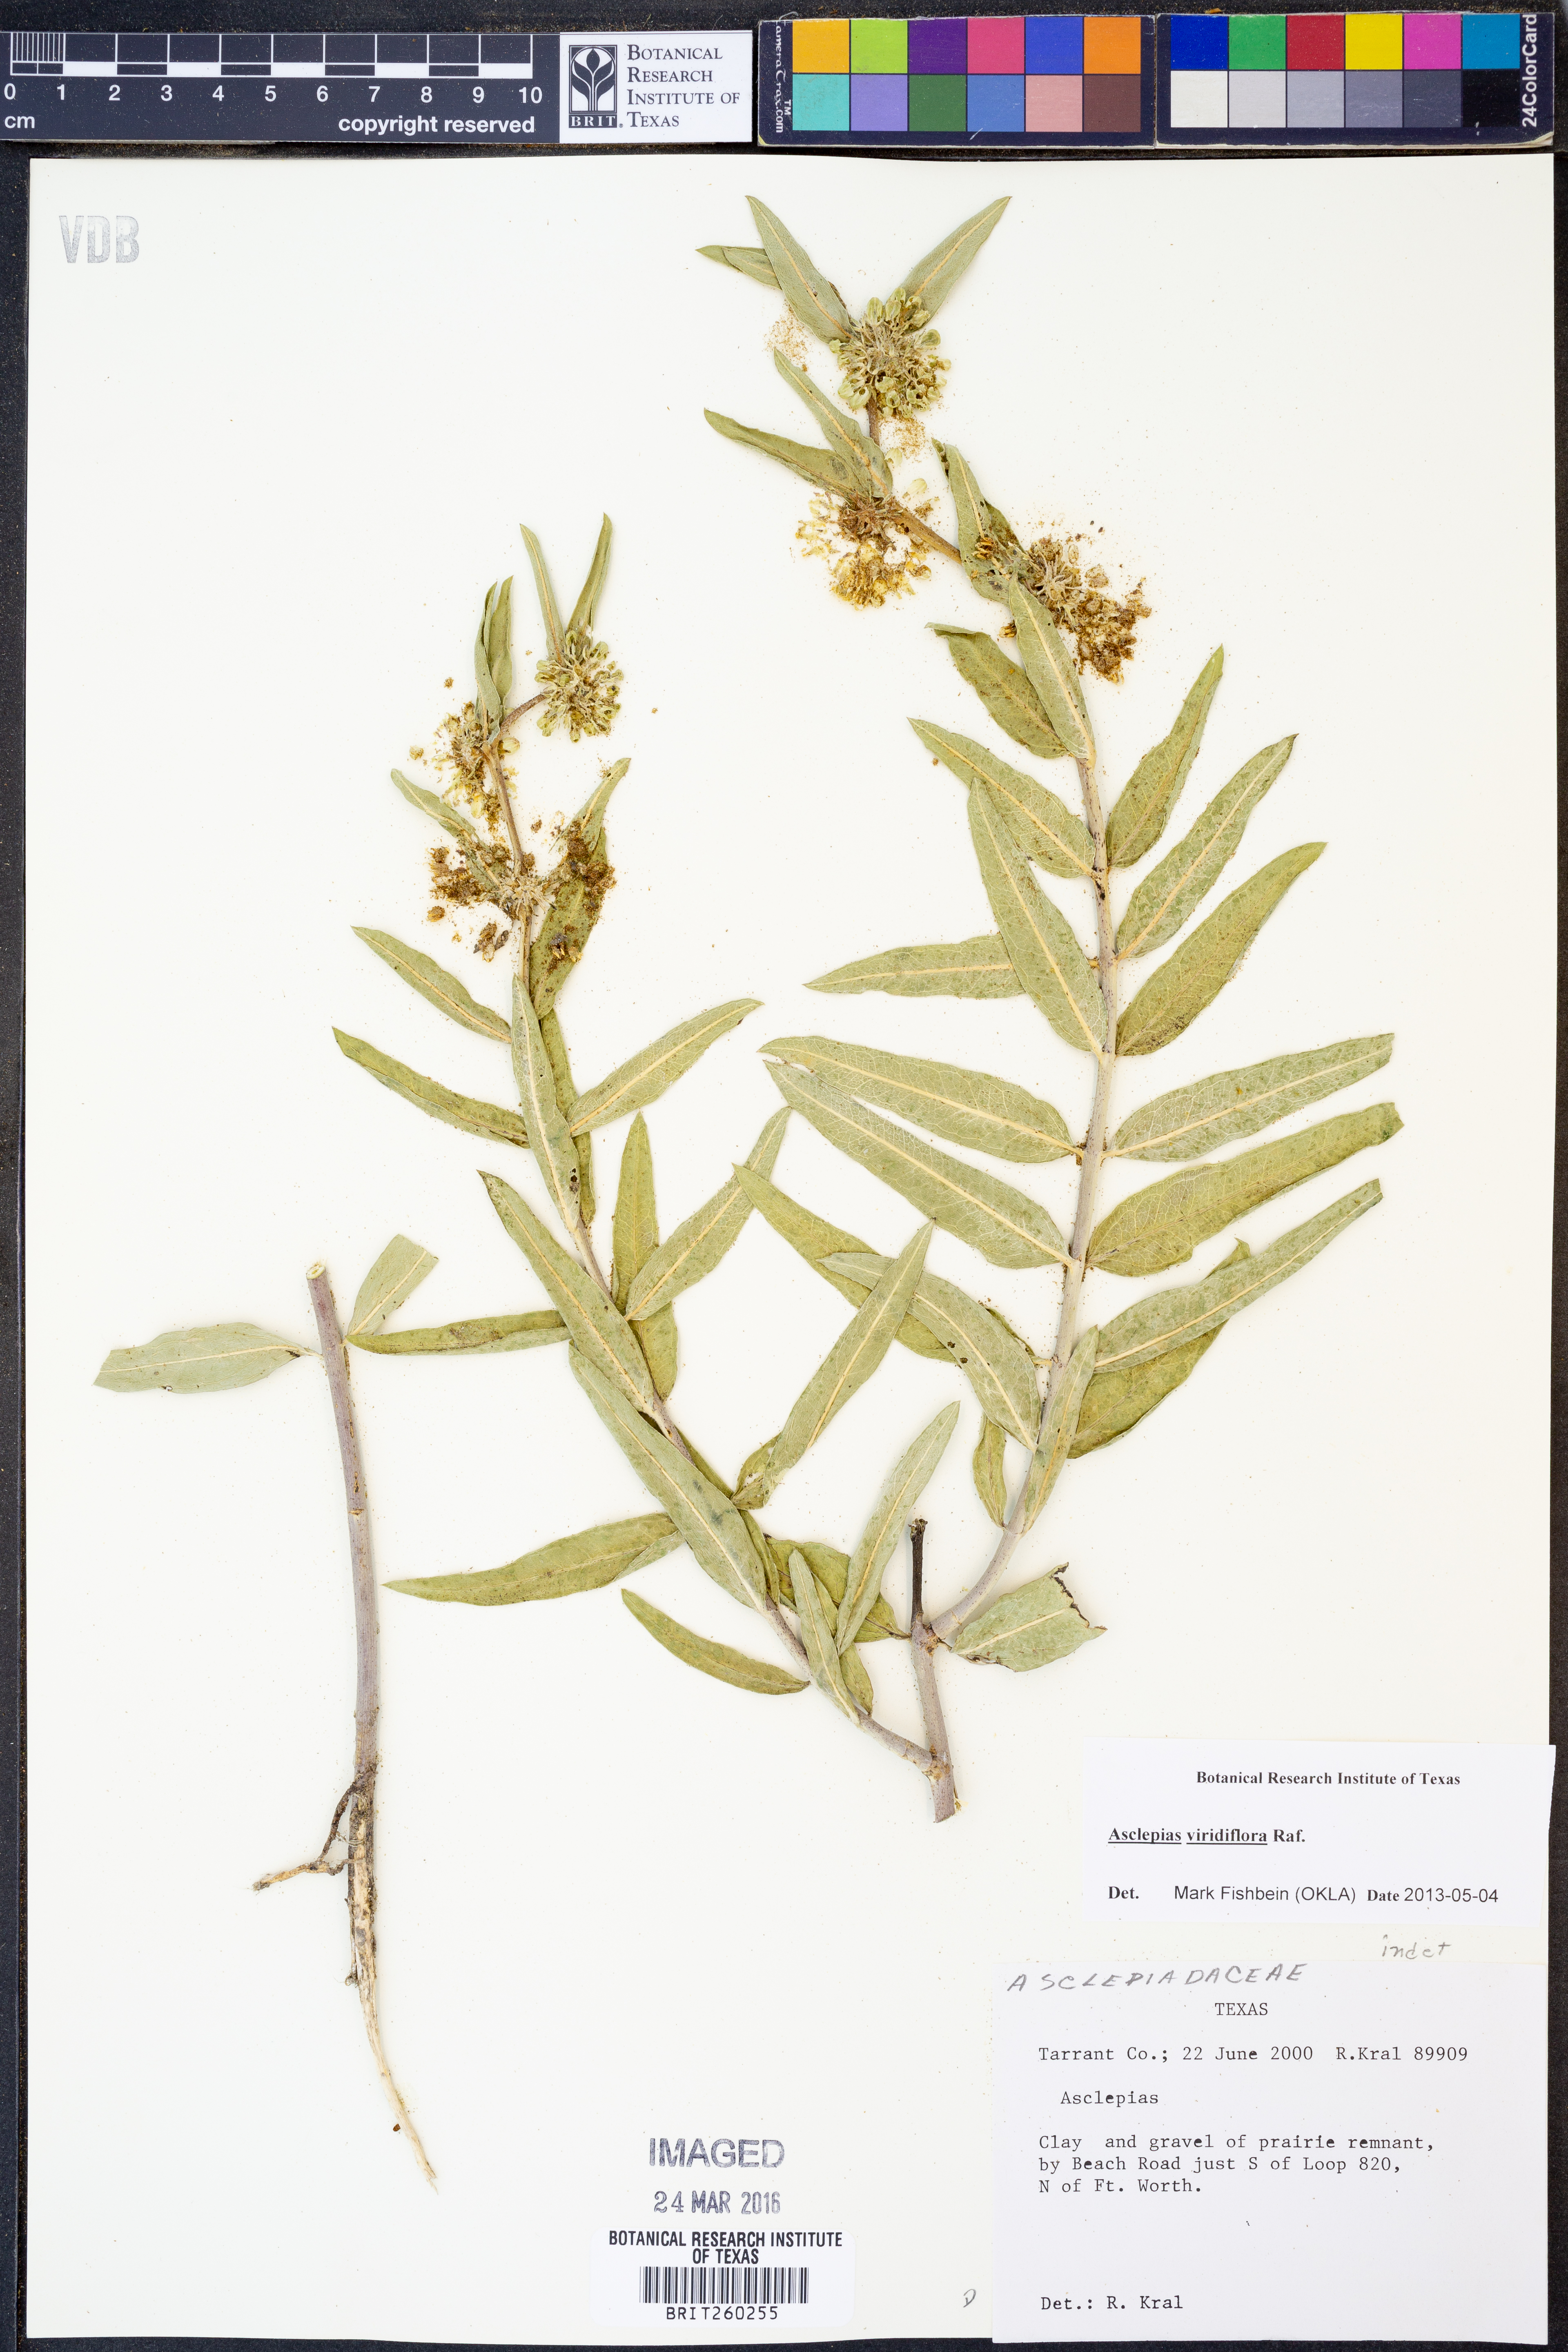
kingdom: Plantae
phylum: Tracheophyta
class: Magnoliopsida
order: Gentianales
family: Apocynaceae
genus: Asclepias
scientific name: Asclepias viridiflora
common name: Green comet milkweed
